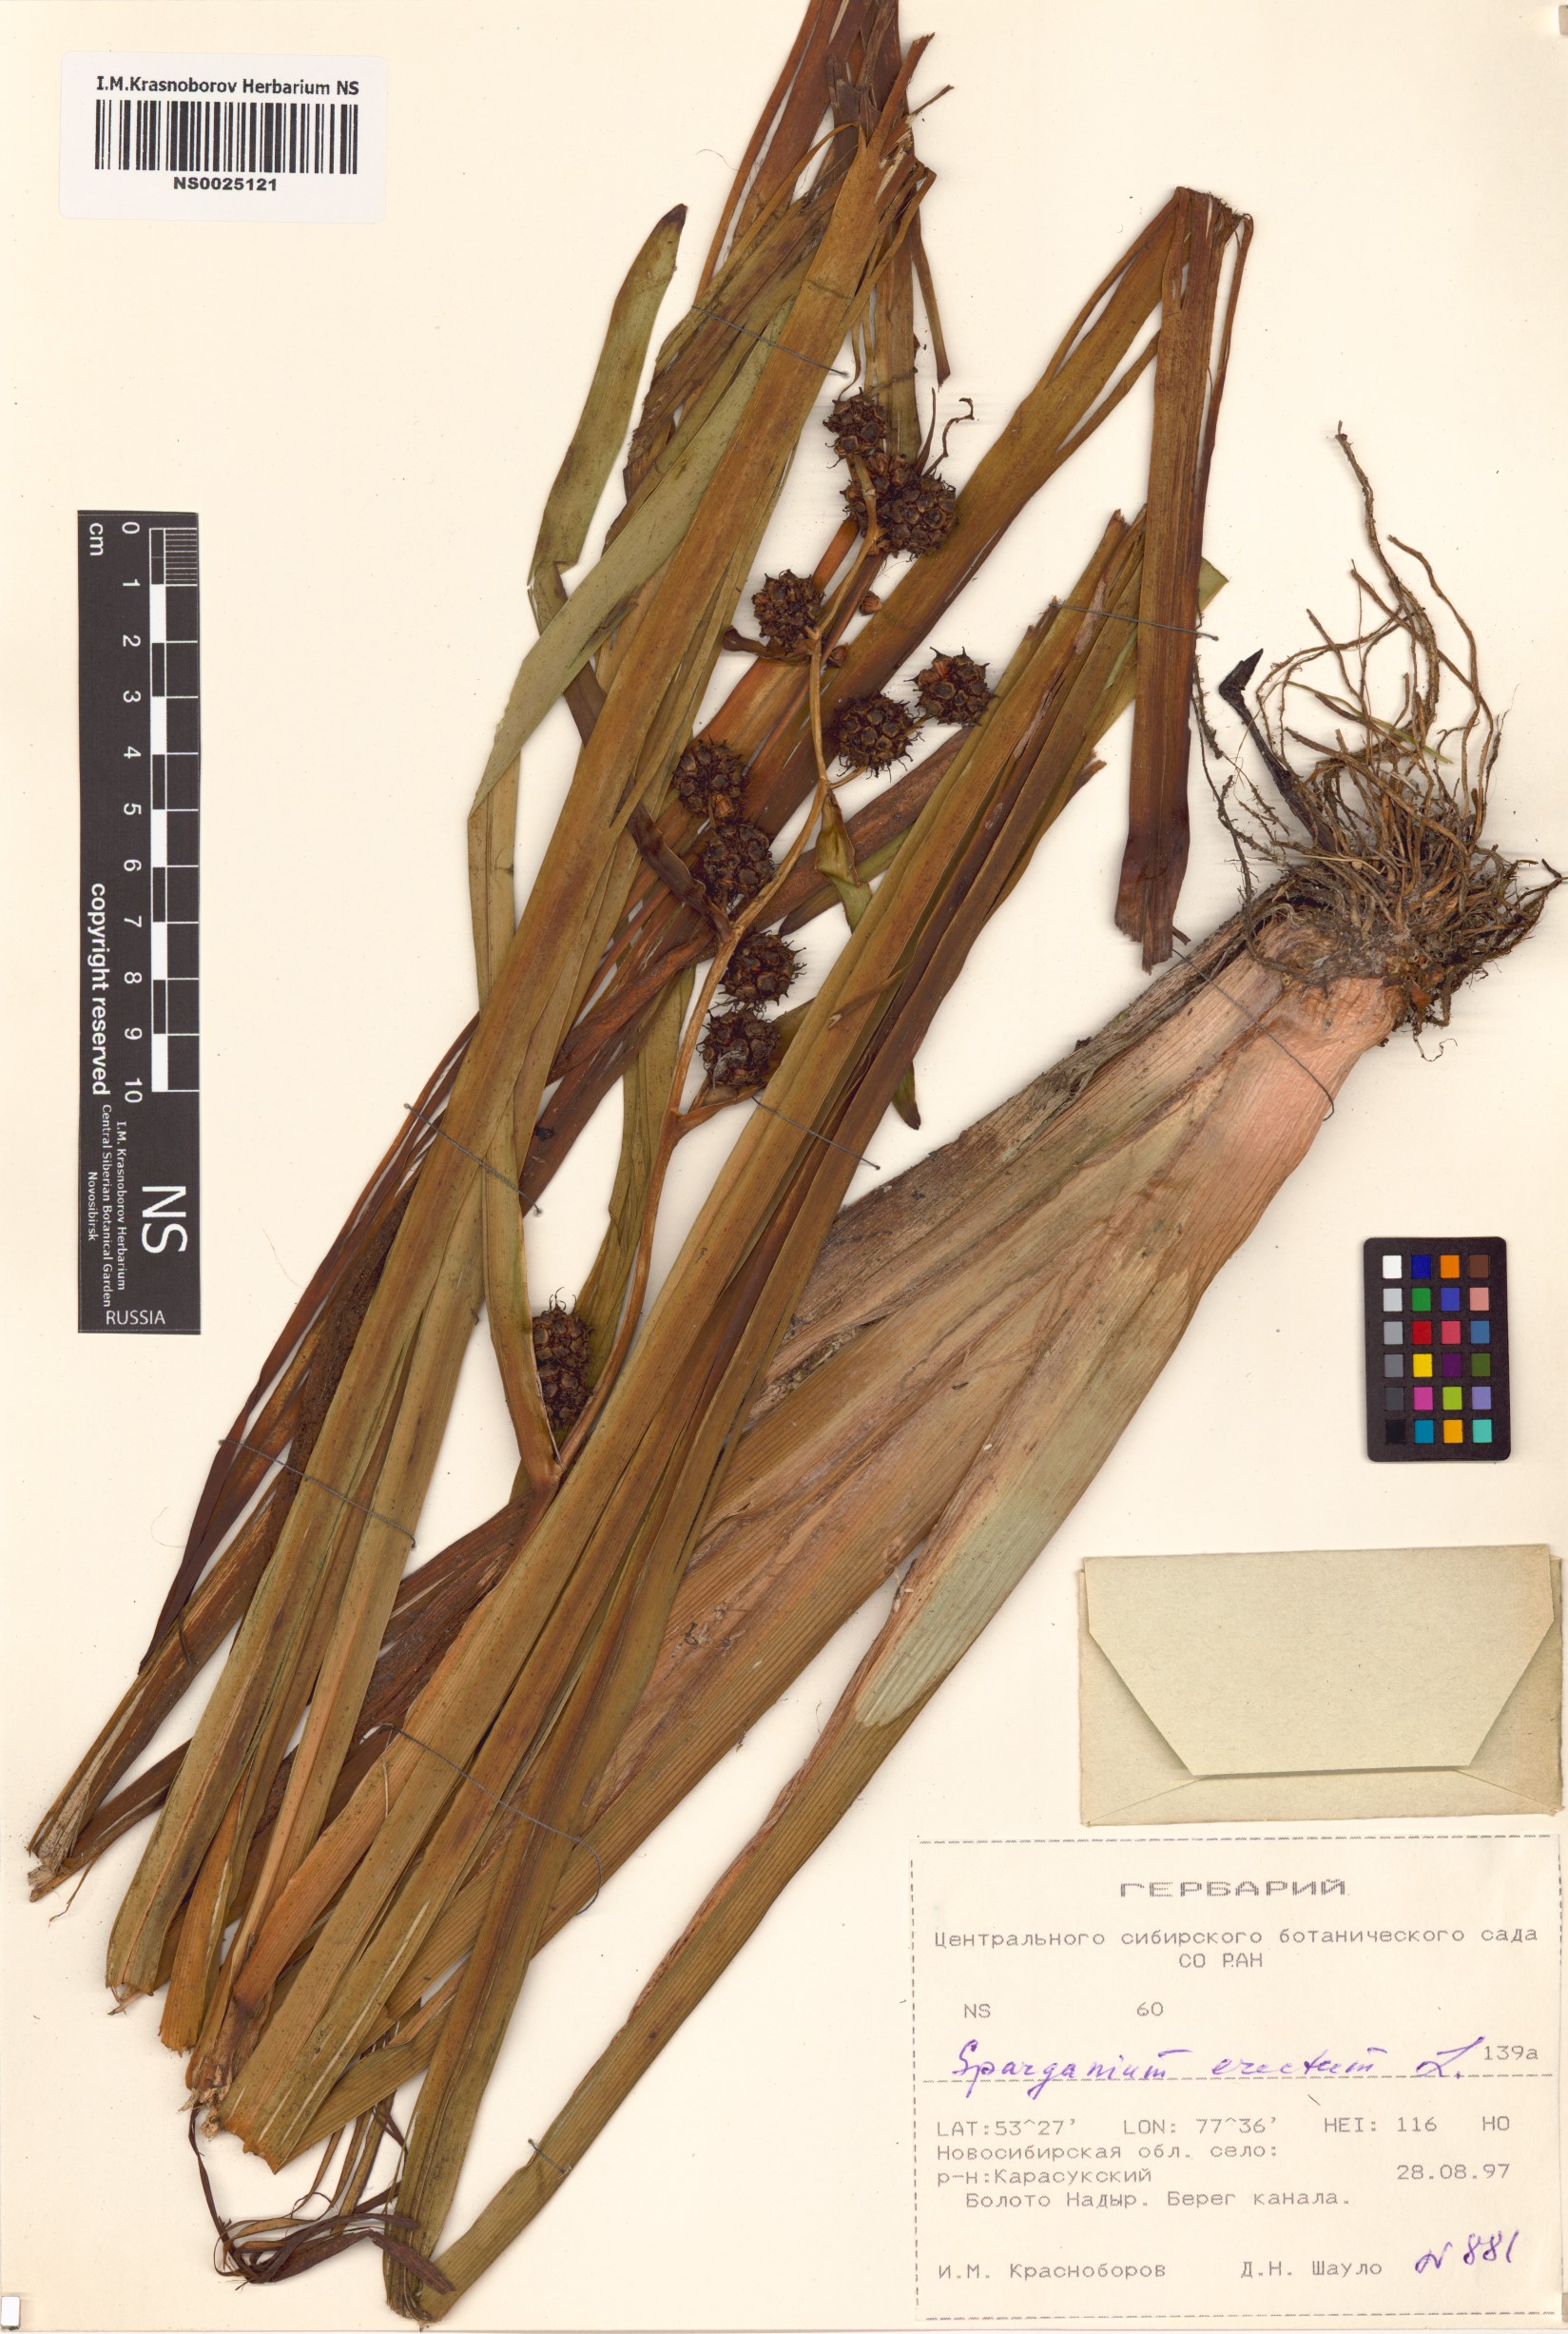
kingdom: Plantae
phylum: Tracheophyta
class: Liliopsida
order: Poales
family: Typhaceae
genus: Sparganium
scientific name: Sparganium erectum
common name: Branched bur-reed
